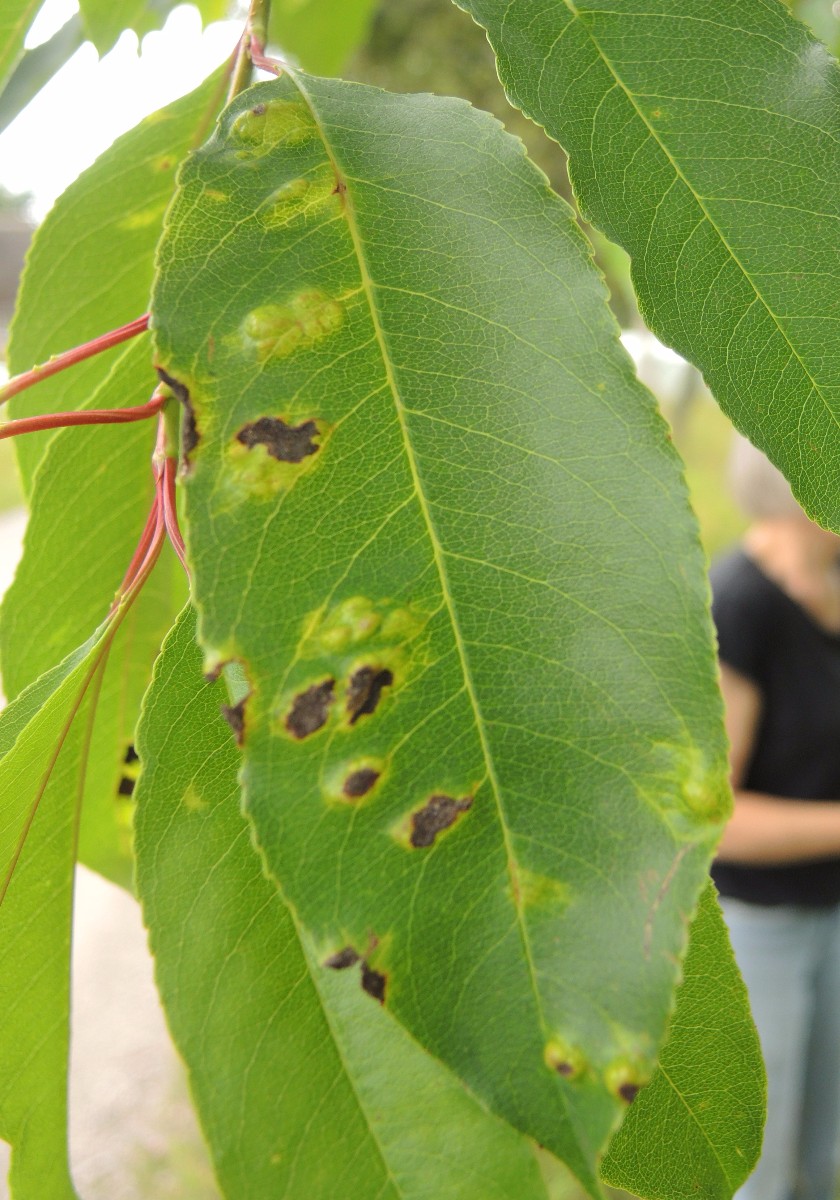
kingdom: Fungi
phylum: Ascomycota
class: Taphrinomycetes
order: Taphrinales
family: Taphrinaceae
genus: Taphrina
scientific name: Taphrina farlowii
